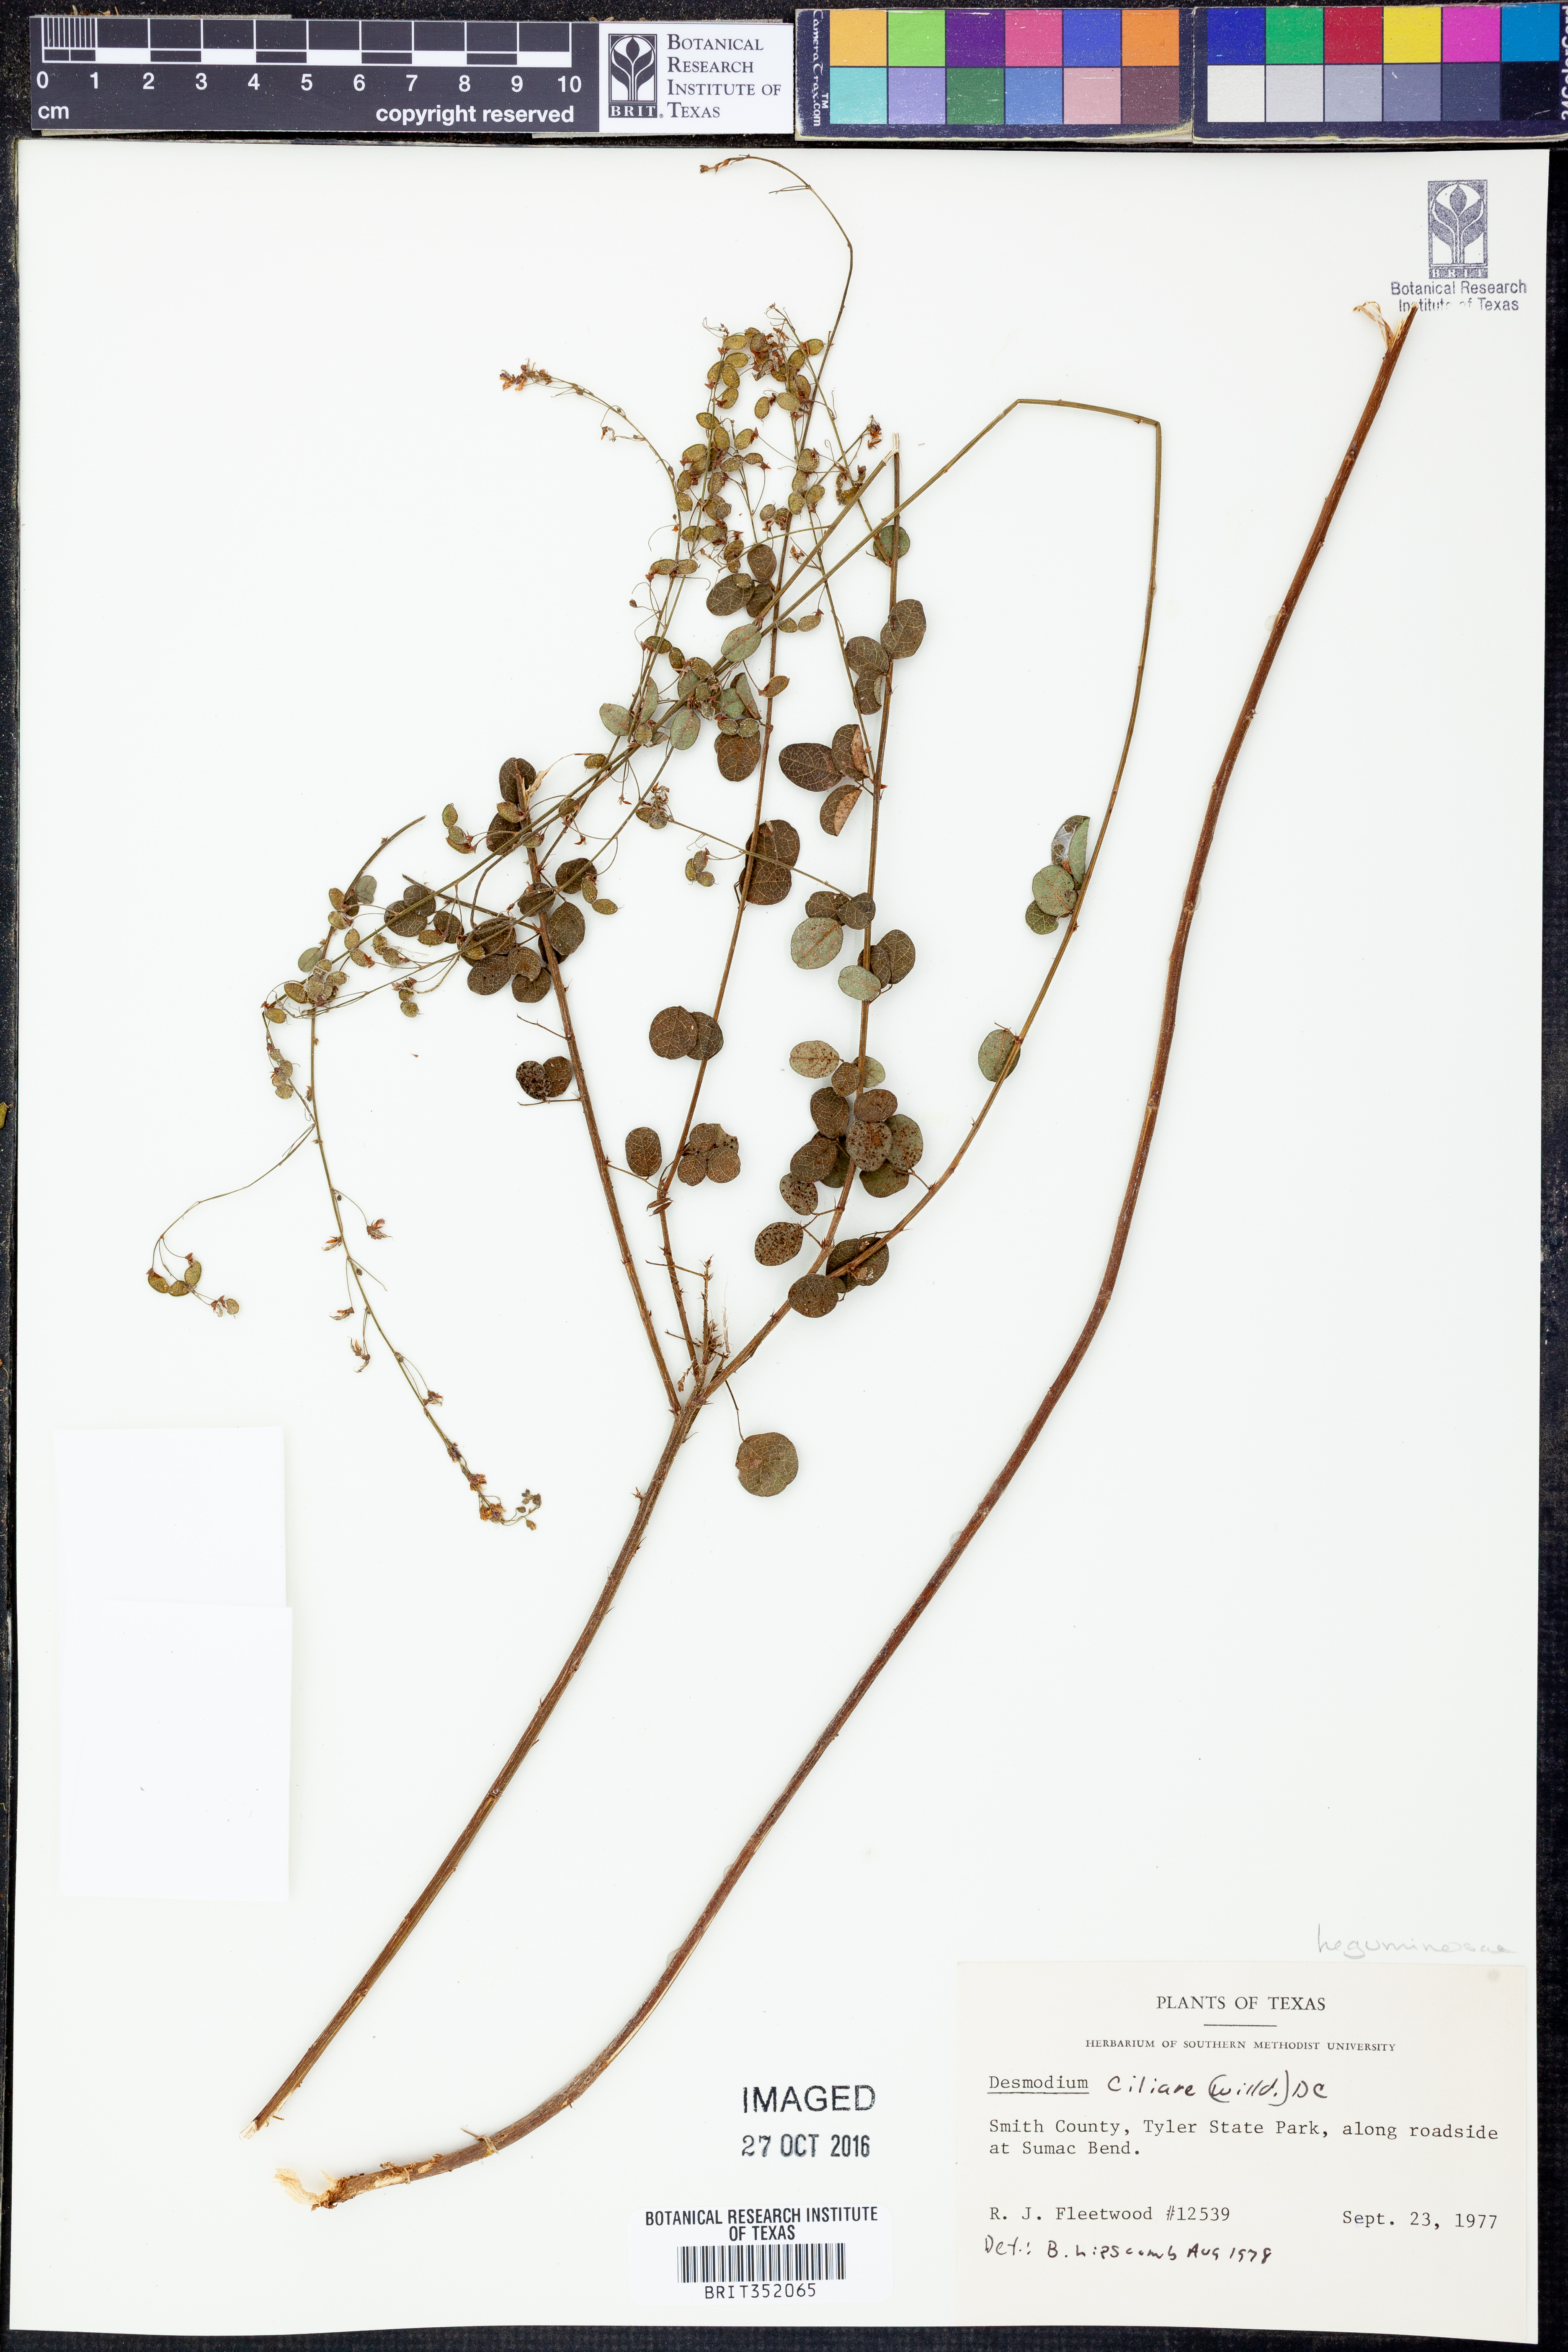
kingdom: Plantae
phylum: Tracheophyta
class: Magnoliopsida
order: Fabales
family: Fabaceae
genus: Desmodium
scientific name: Desmodium ciliare
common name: Hairy small-leaf ticktrefoil
